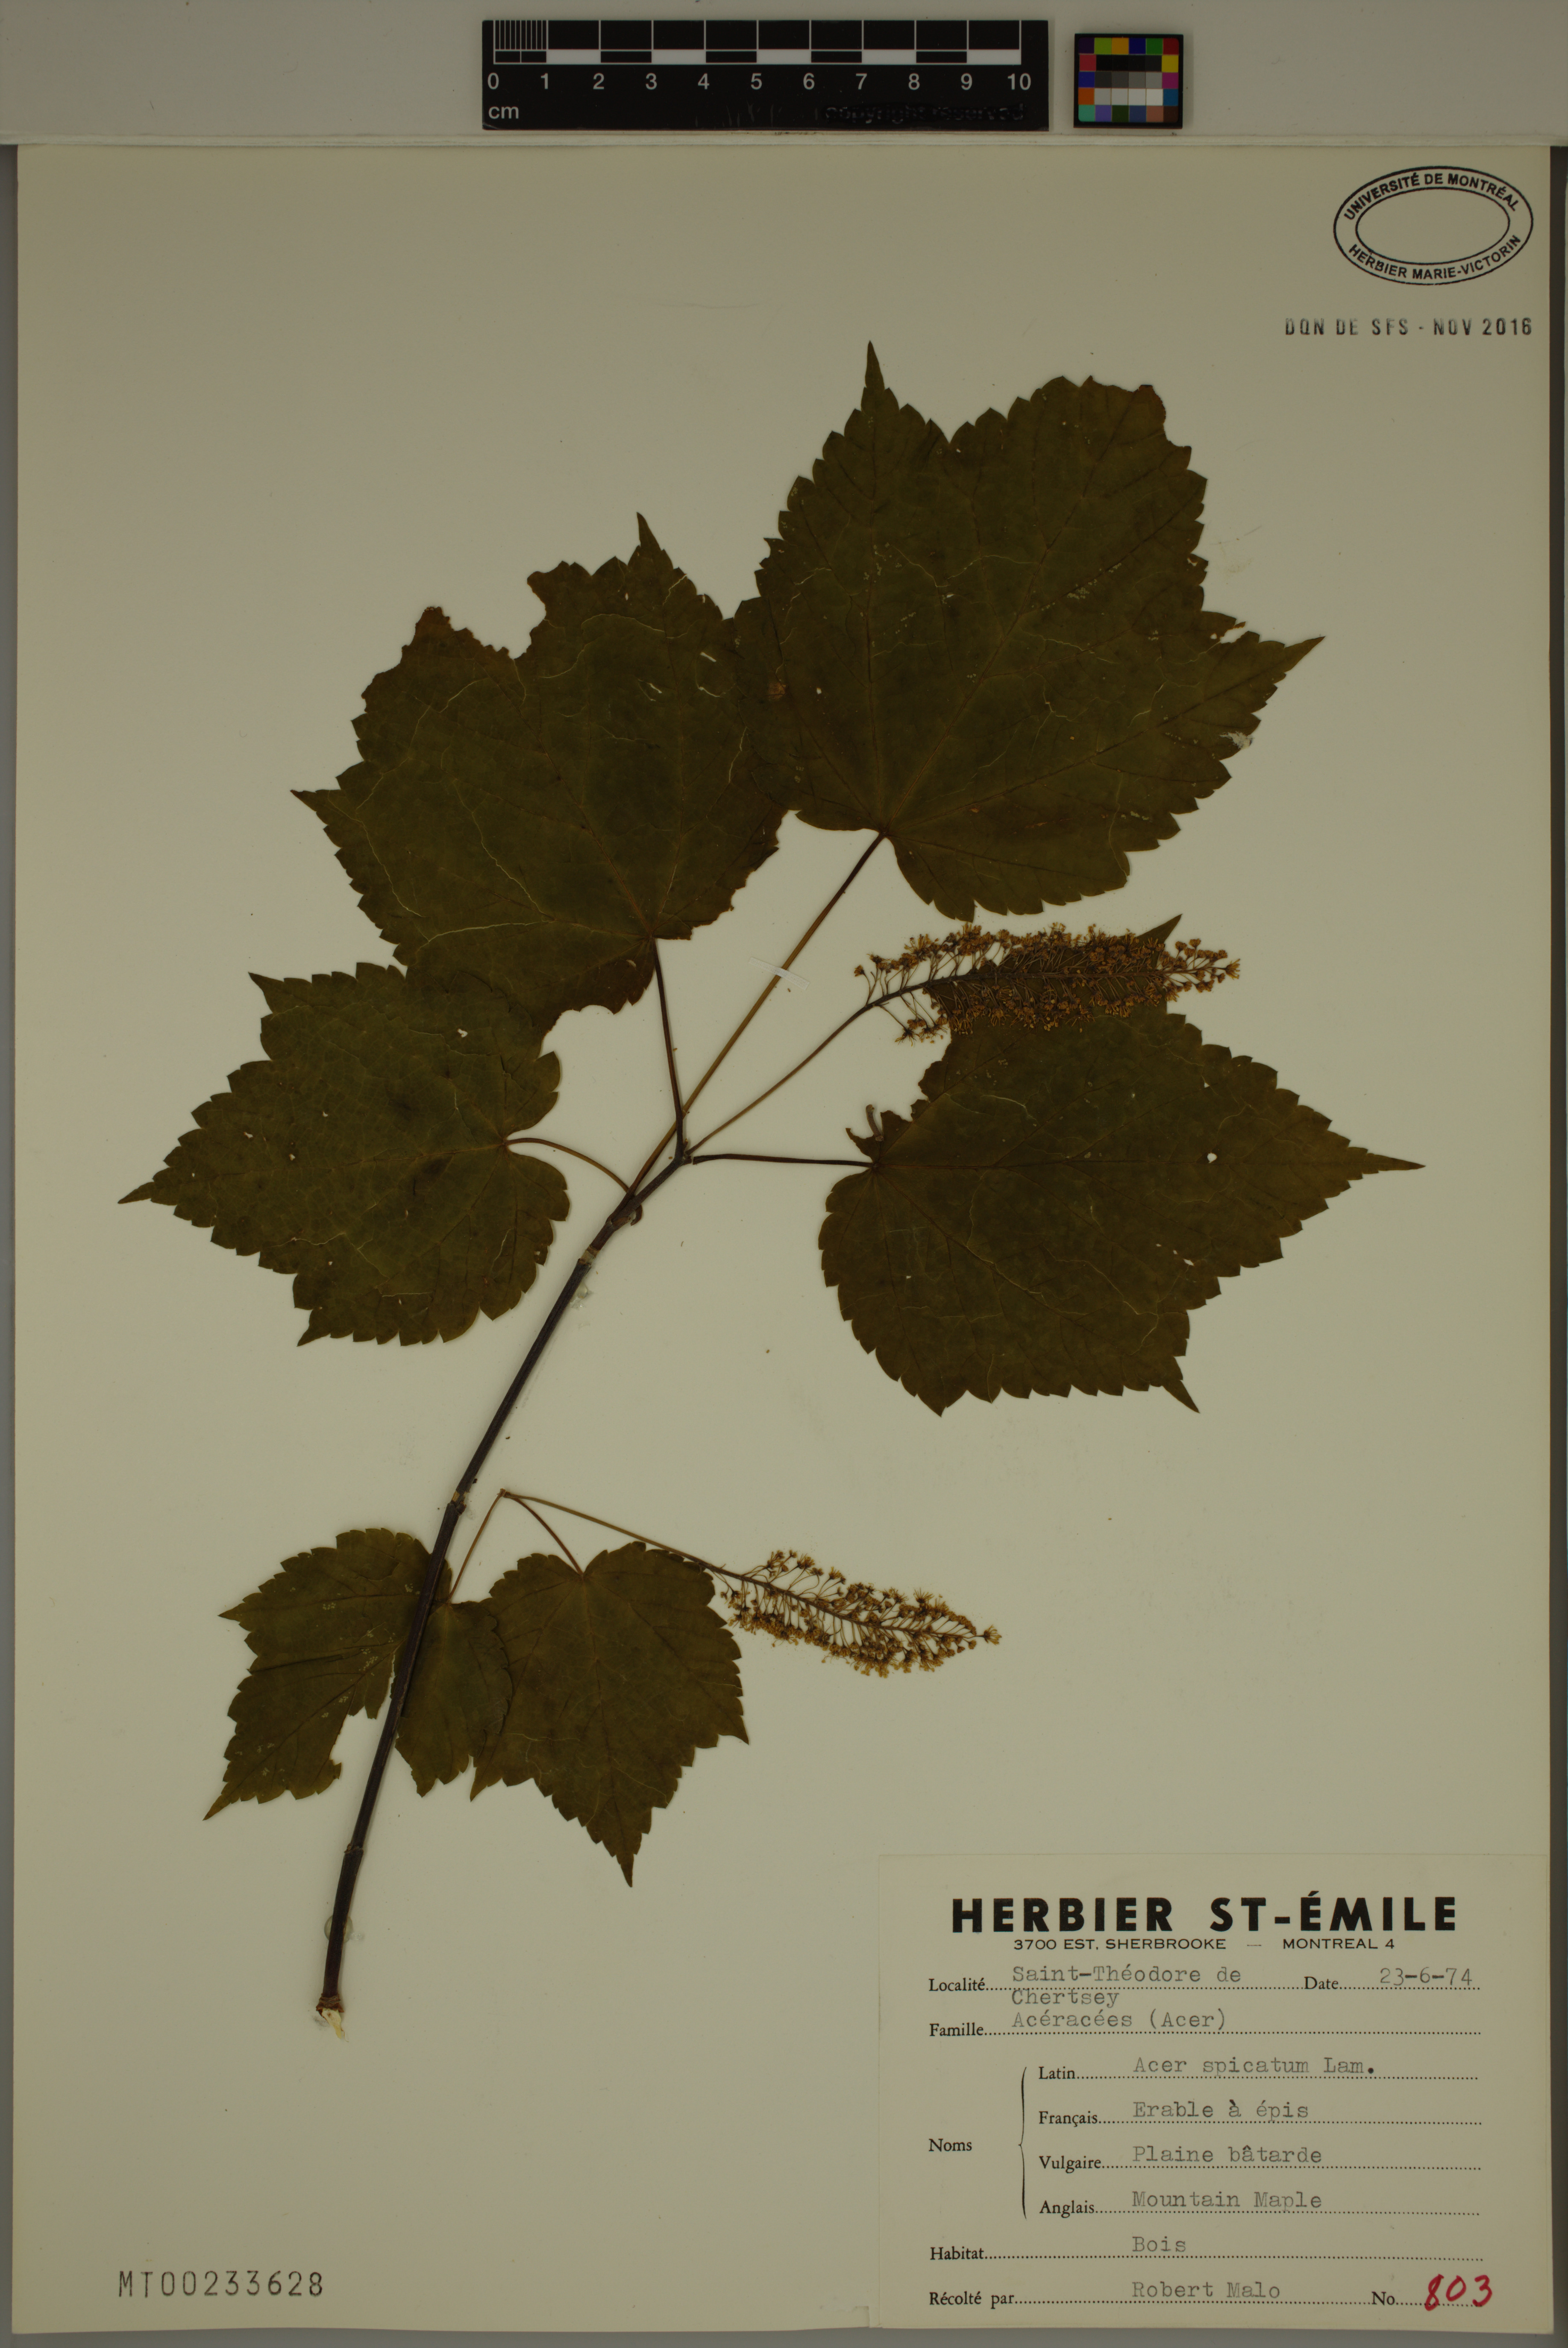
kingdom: Plantae
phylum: Tracheophyta
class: Magnoliopsida
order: Sapindales
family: Sapindaceae
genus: Acer
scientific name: Acer spicatum
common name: Mountain maple
